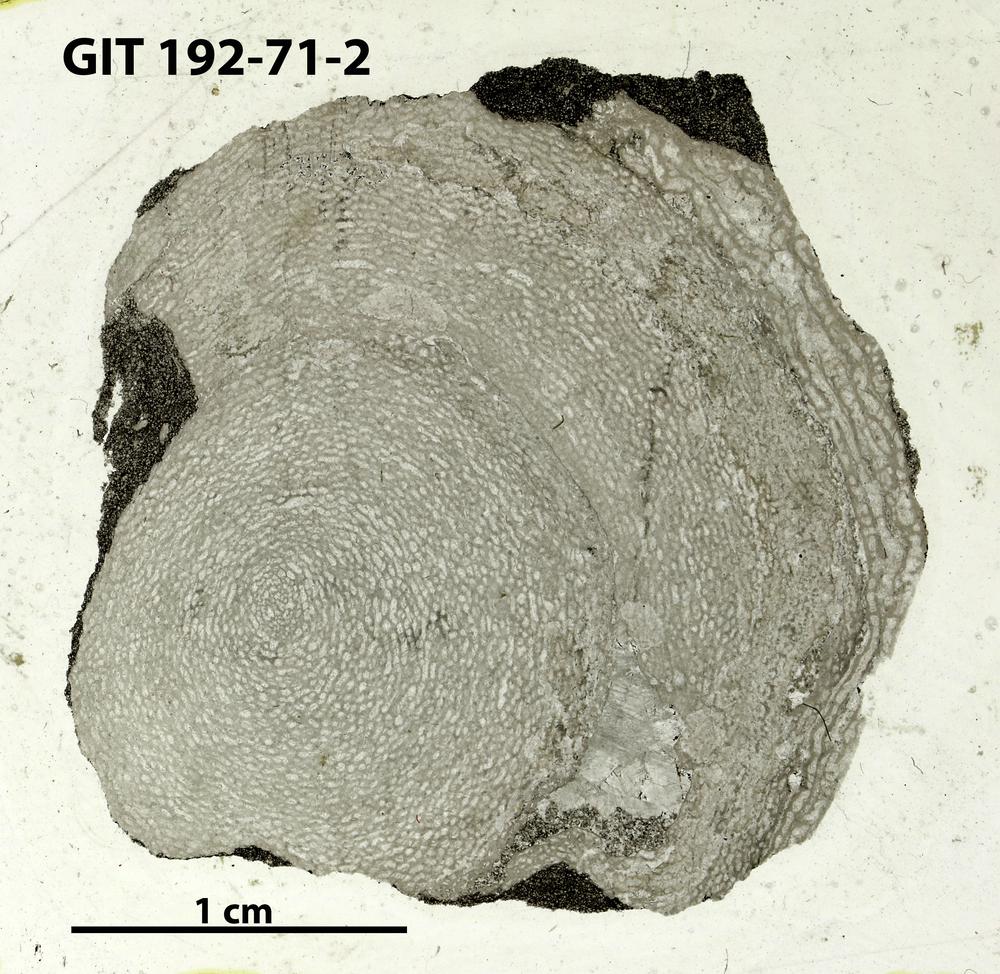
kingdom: Animalia
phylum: Porifera
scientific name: Porifera
